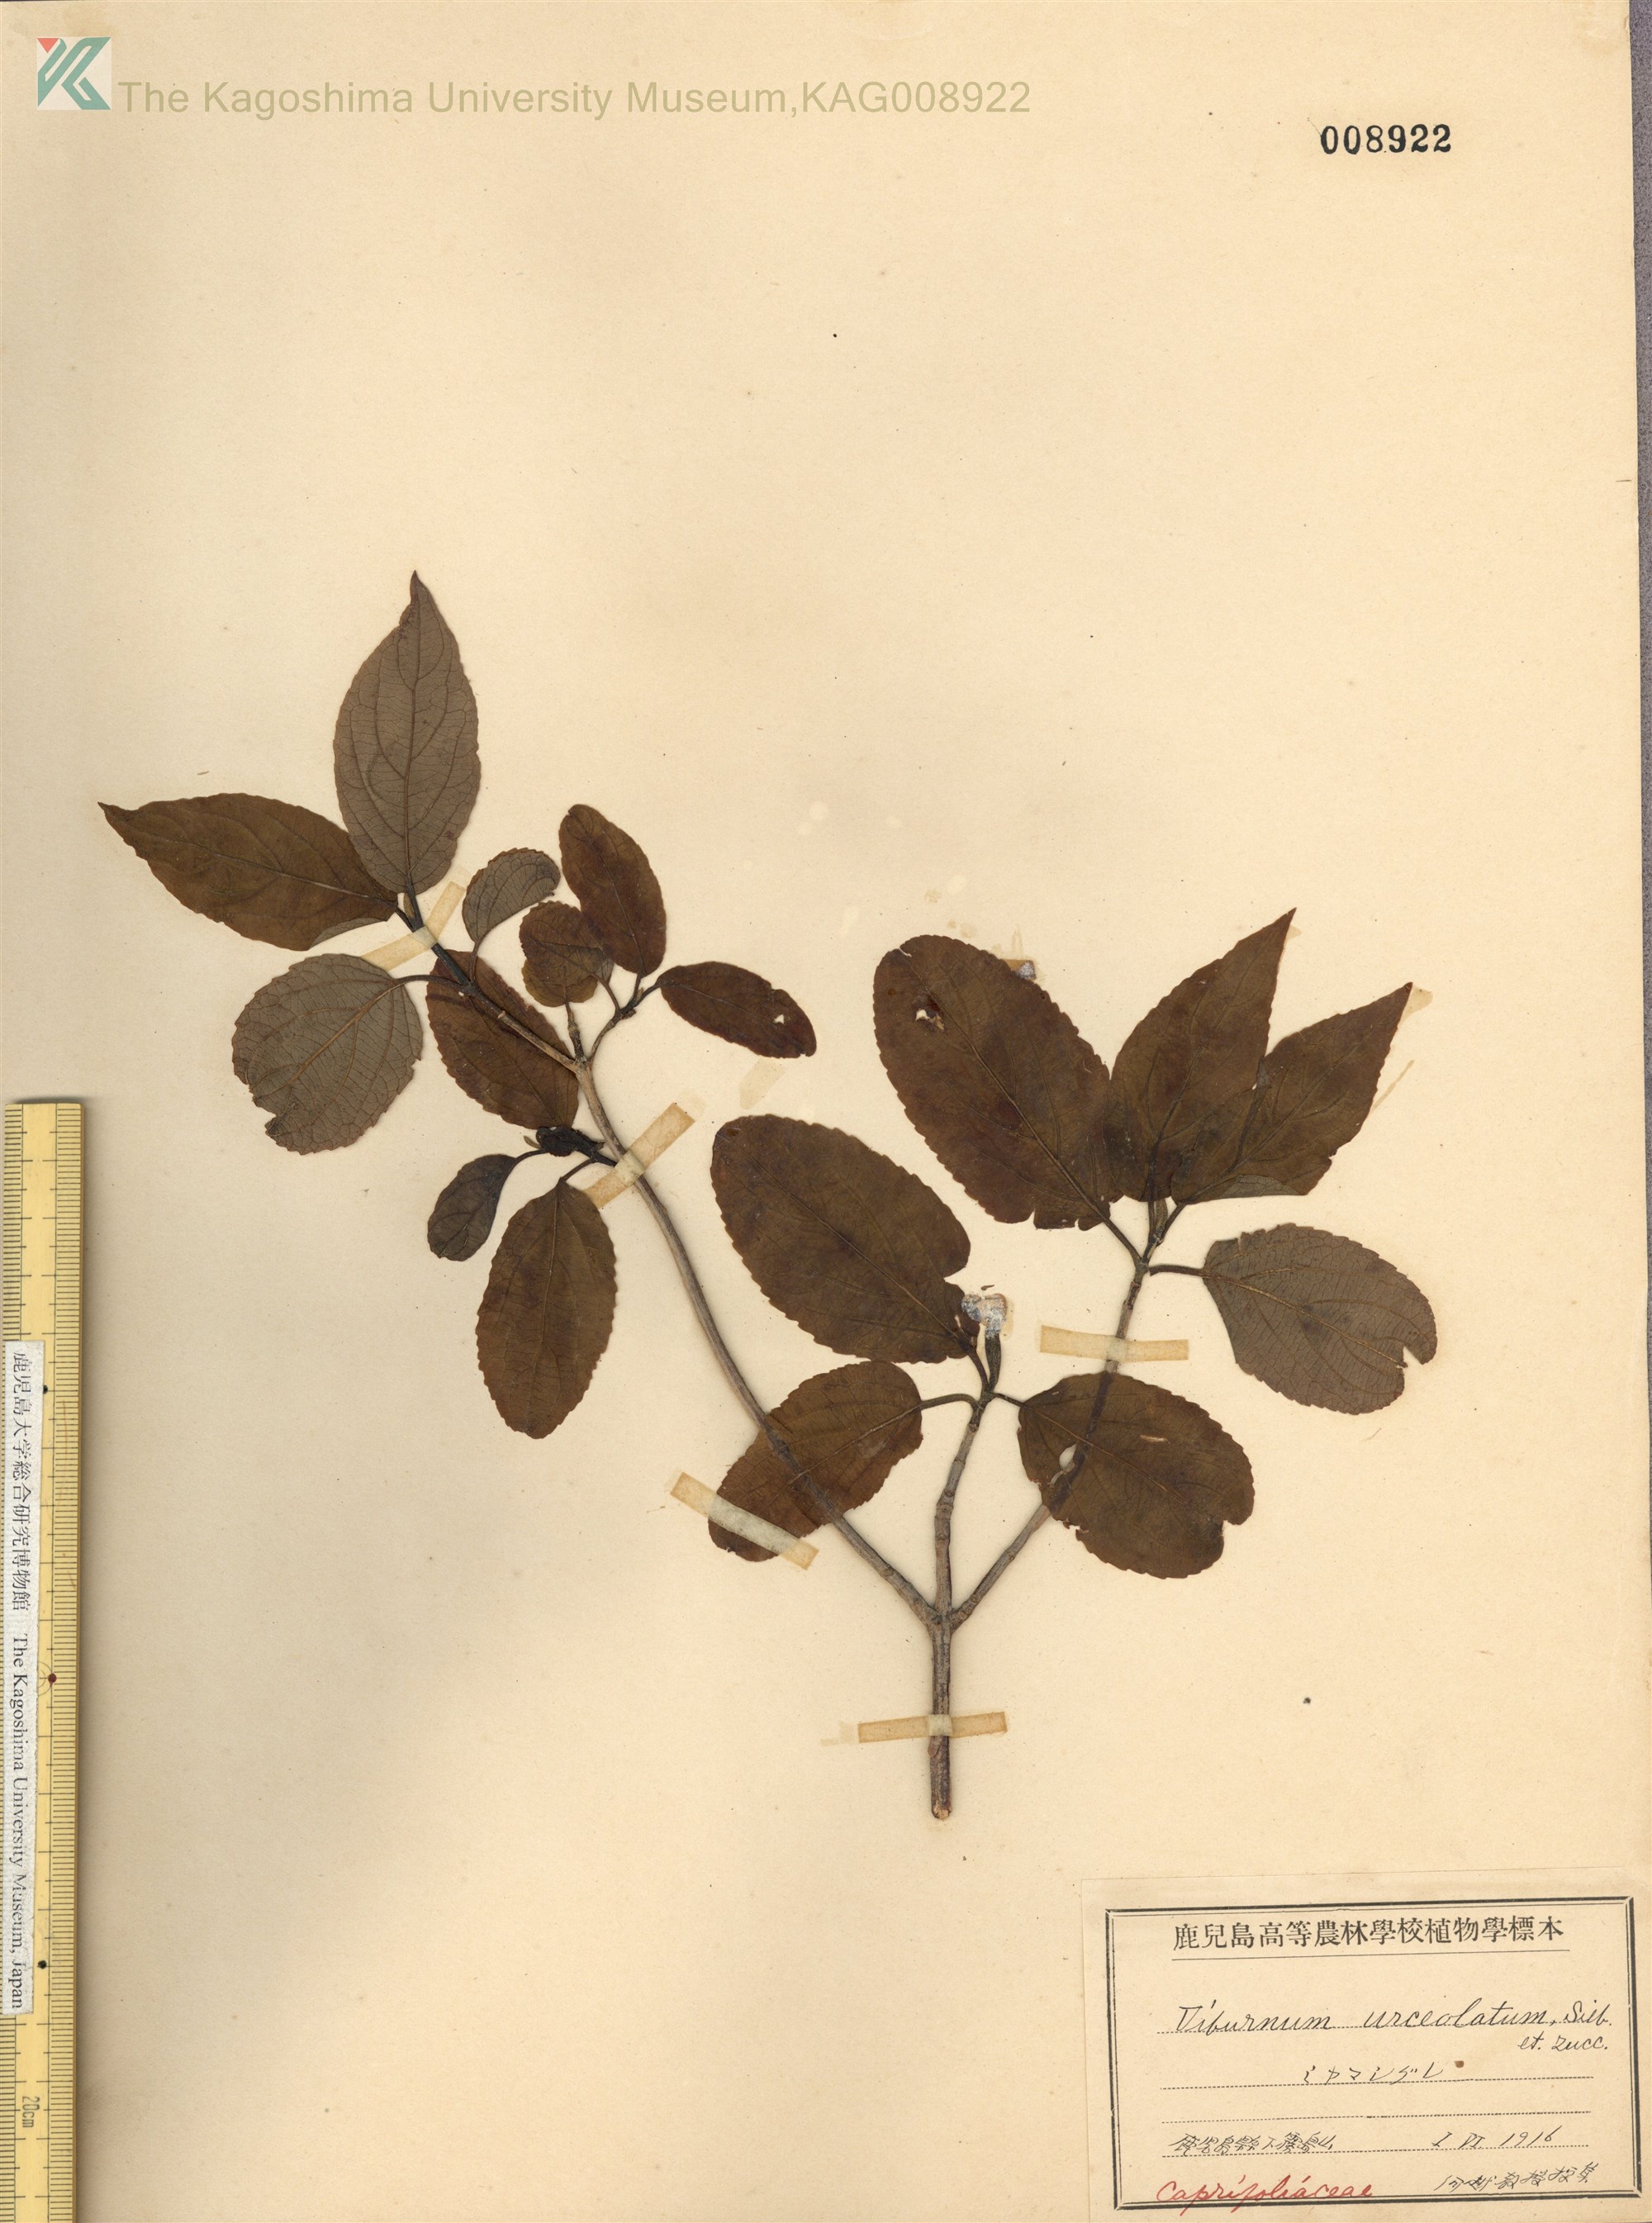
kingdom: Plantae
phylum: Tracheophyta
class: Magnoliopsida
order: Dipsacales
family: Viburnaceae
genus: Viburnum
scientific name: Viburnum urceolatum
